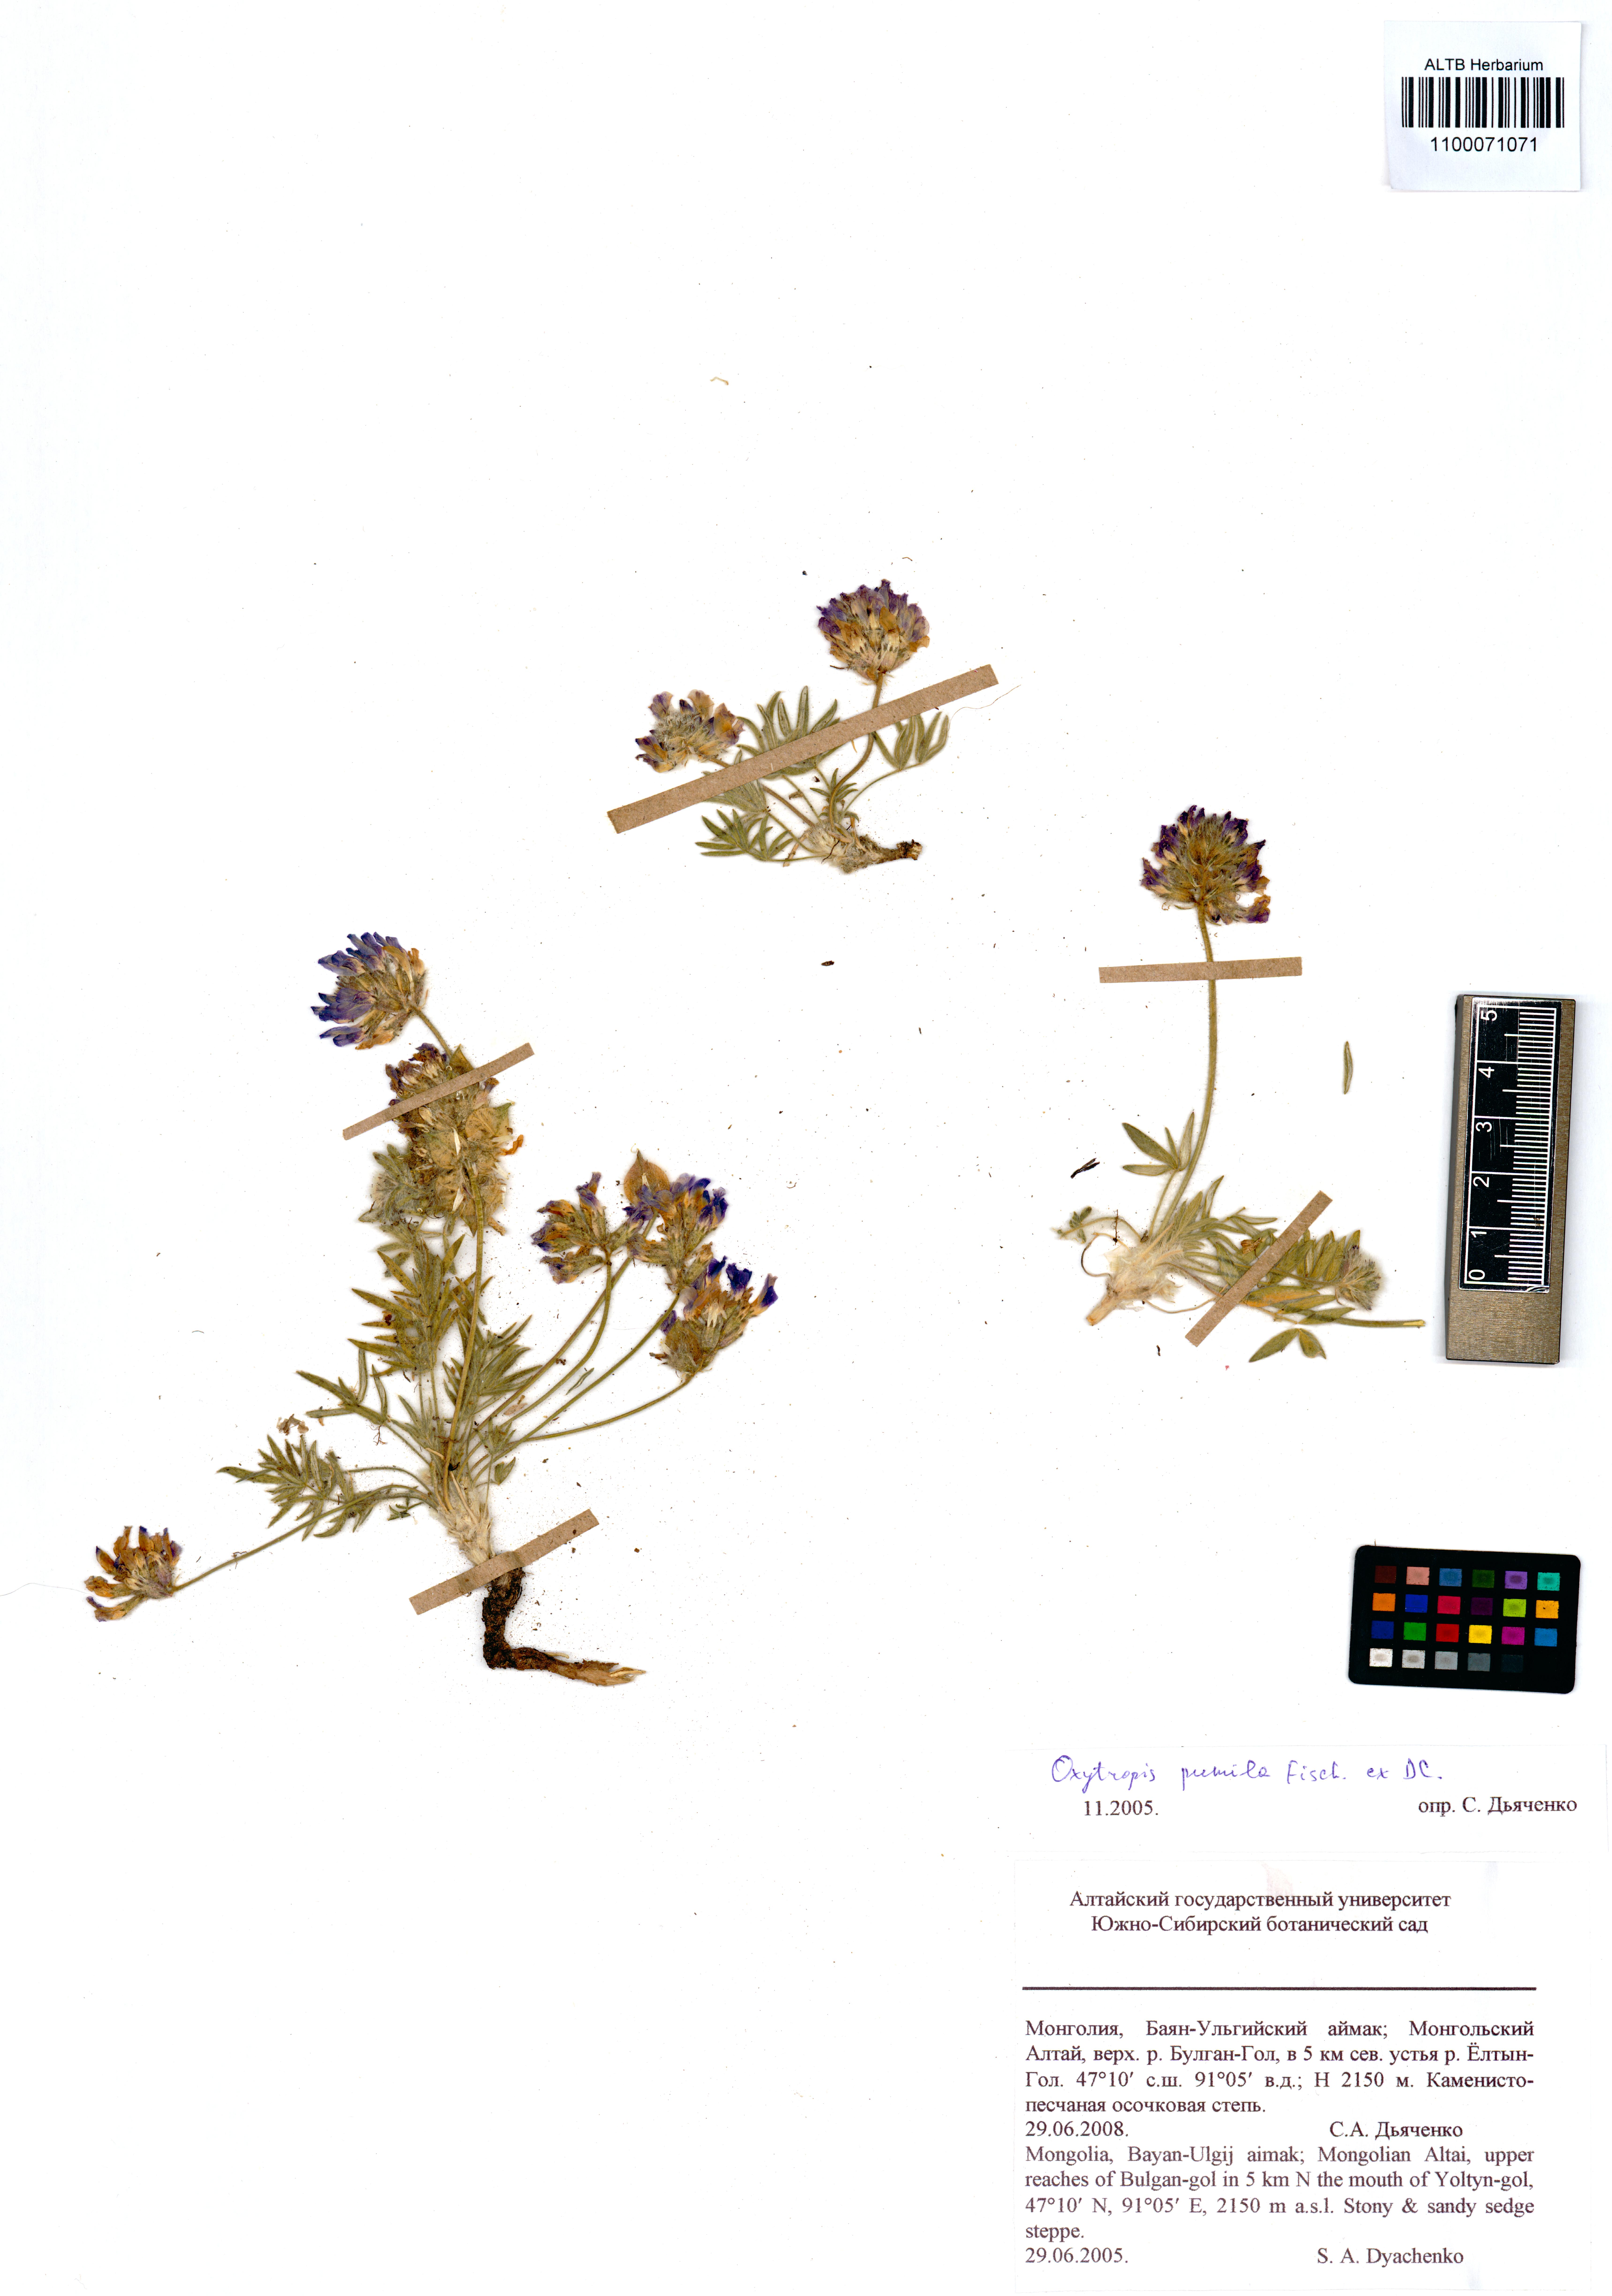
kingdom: Plantae
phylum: Tracheophyta
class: Magnoliopsida
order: Fabales
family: Fabaceae
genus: Oxytropis
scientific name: Oxytropis pumila
